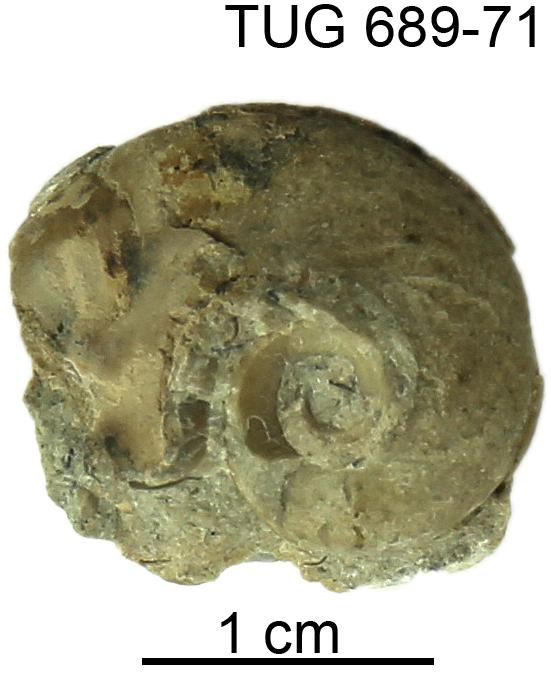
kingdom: Animalia
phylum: Mollusca
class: Gastropoda
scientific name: Gastropoda
